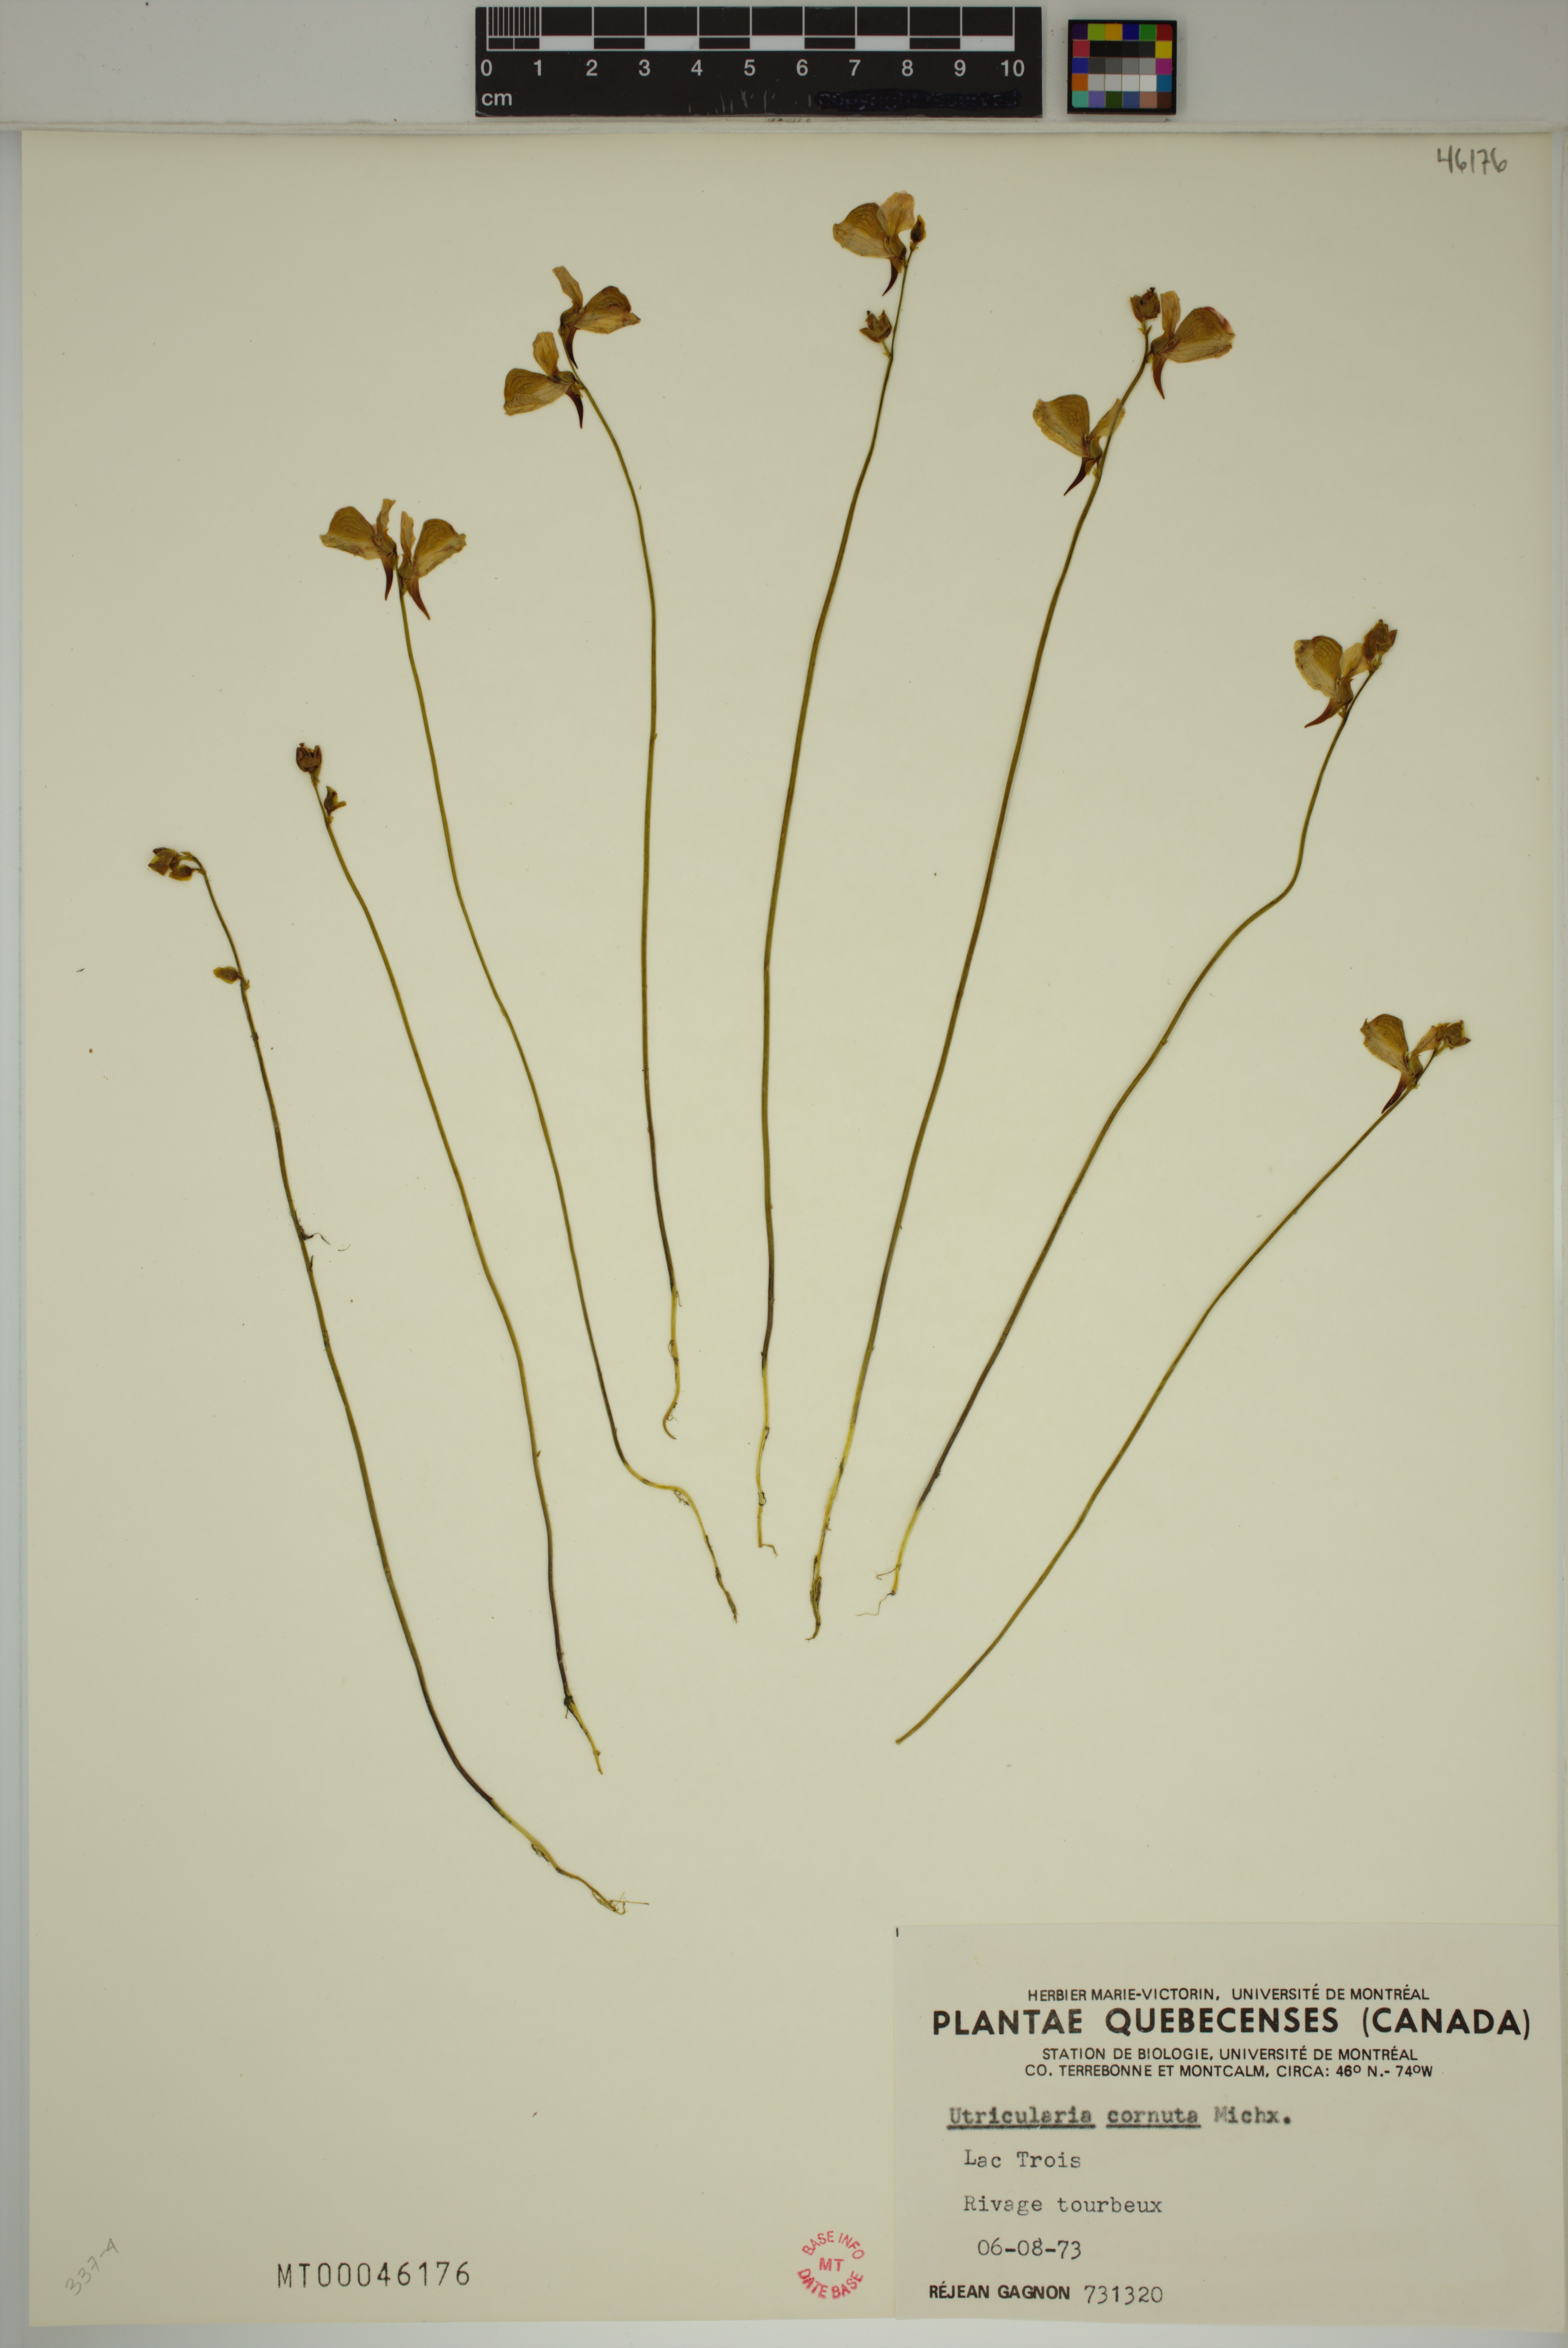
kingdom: Plantae
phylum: Tracheophyta
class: Magnoliopsida
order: Lamiales
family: Lentibulariaceae
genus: Utricularia
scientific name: Utricularia cornuta
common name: Horned bladderwort
